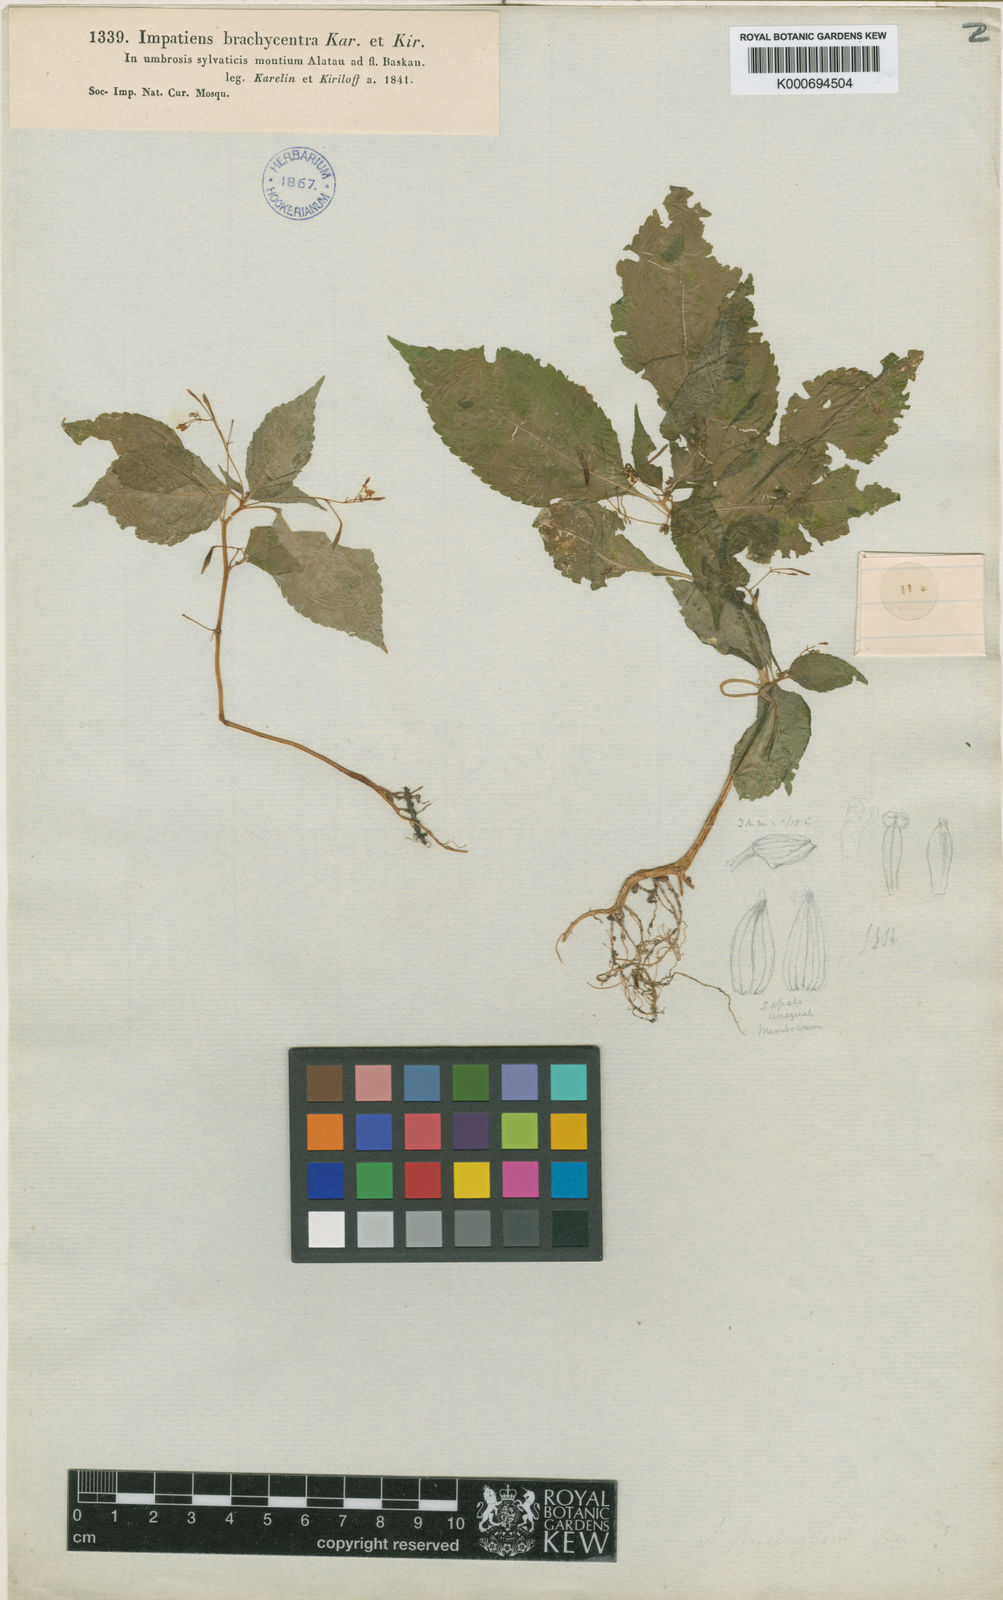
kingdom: Plantae
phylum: Tracheophyta
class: Magnoliopsida
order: Ericales
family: Balsaminaceae
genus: Impatiens
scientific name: Impatiens brachycentra
